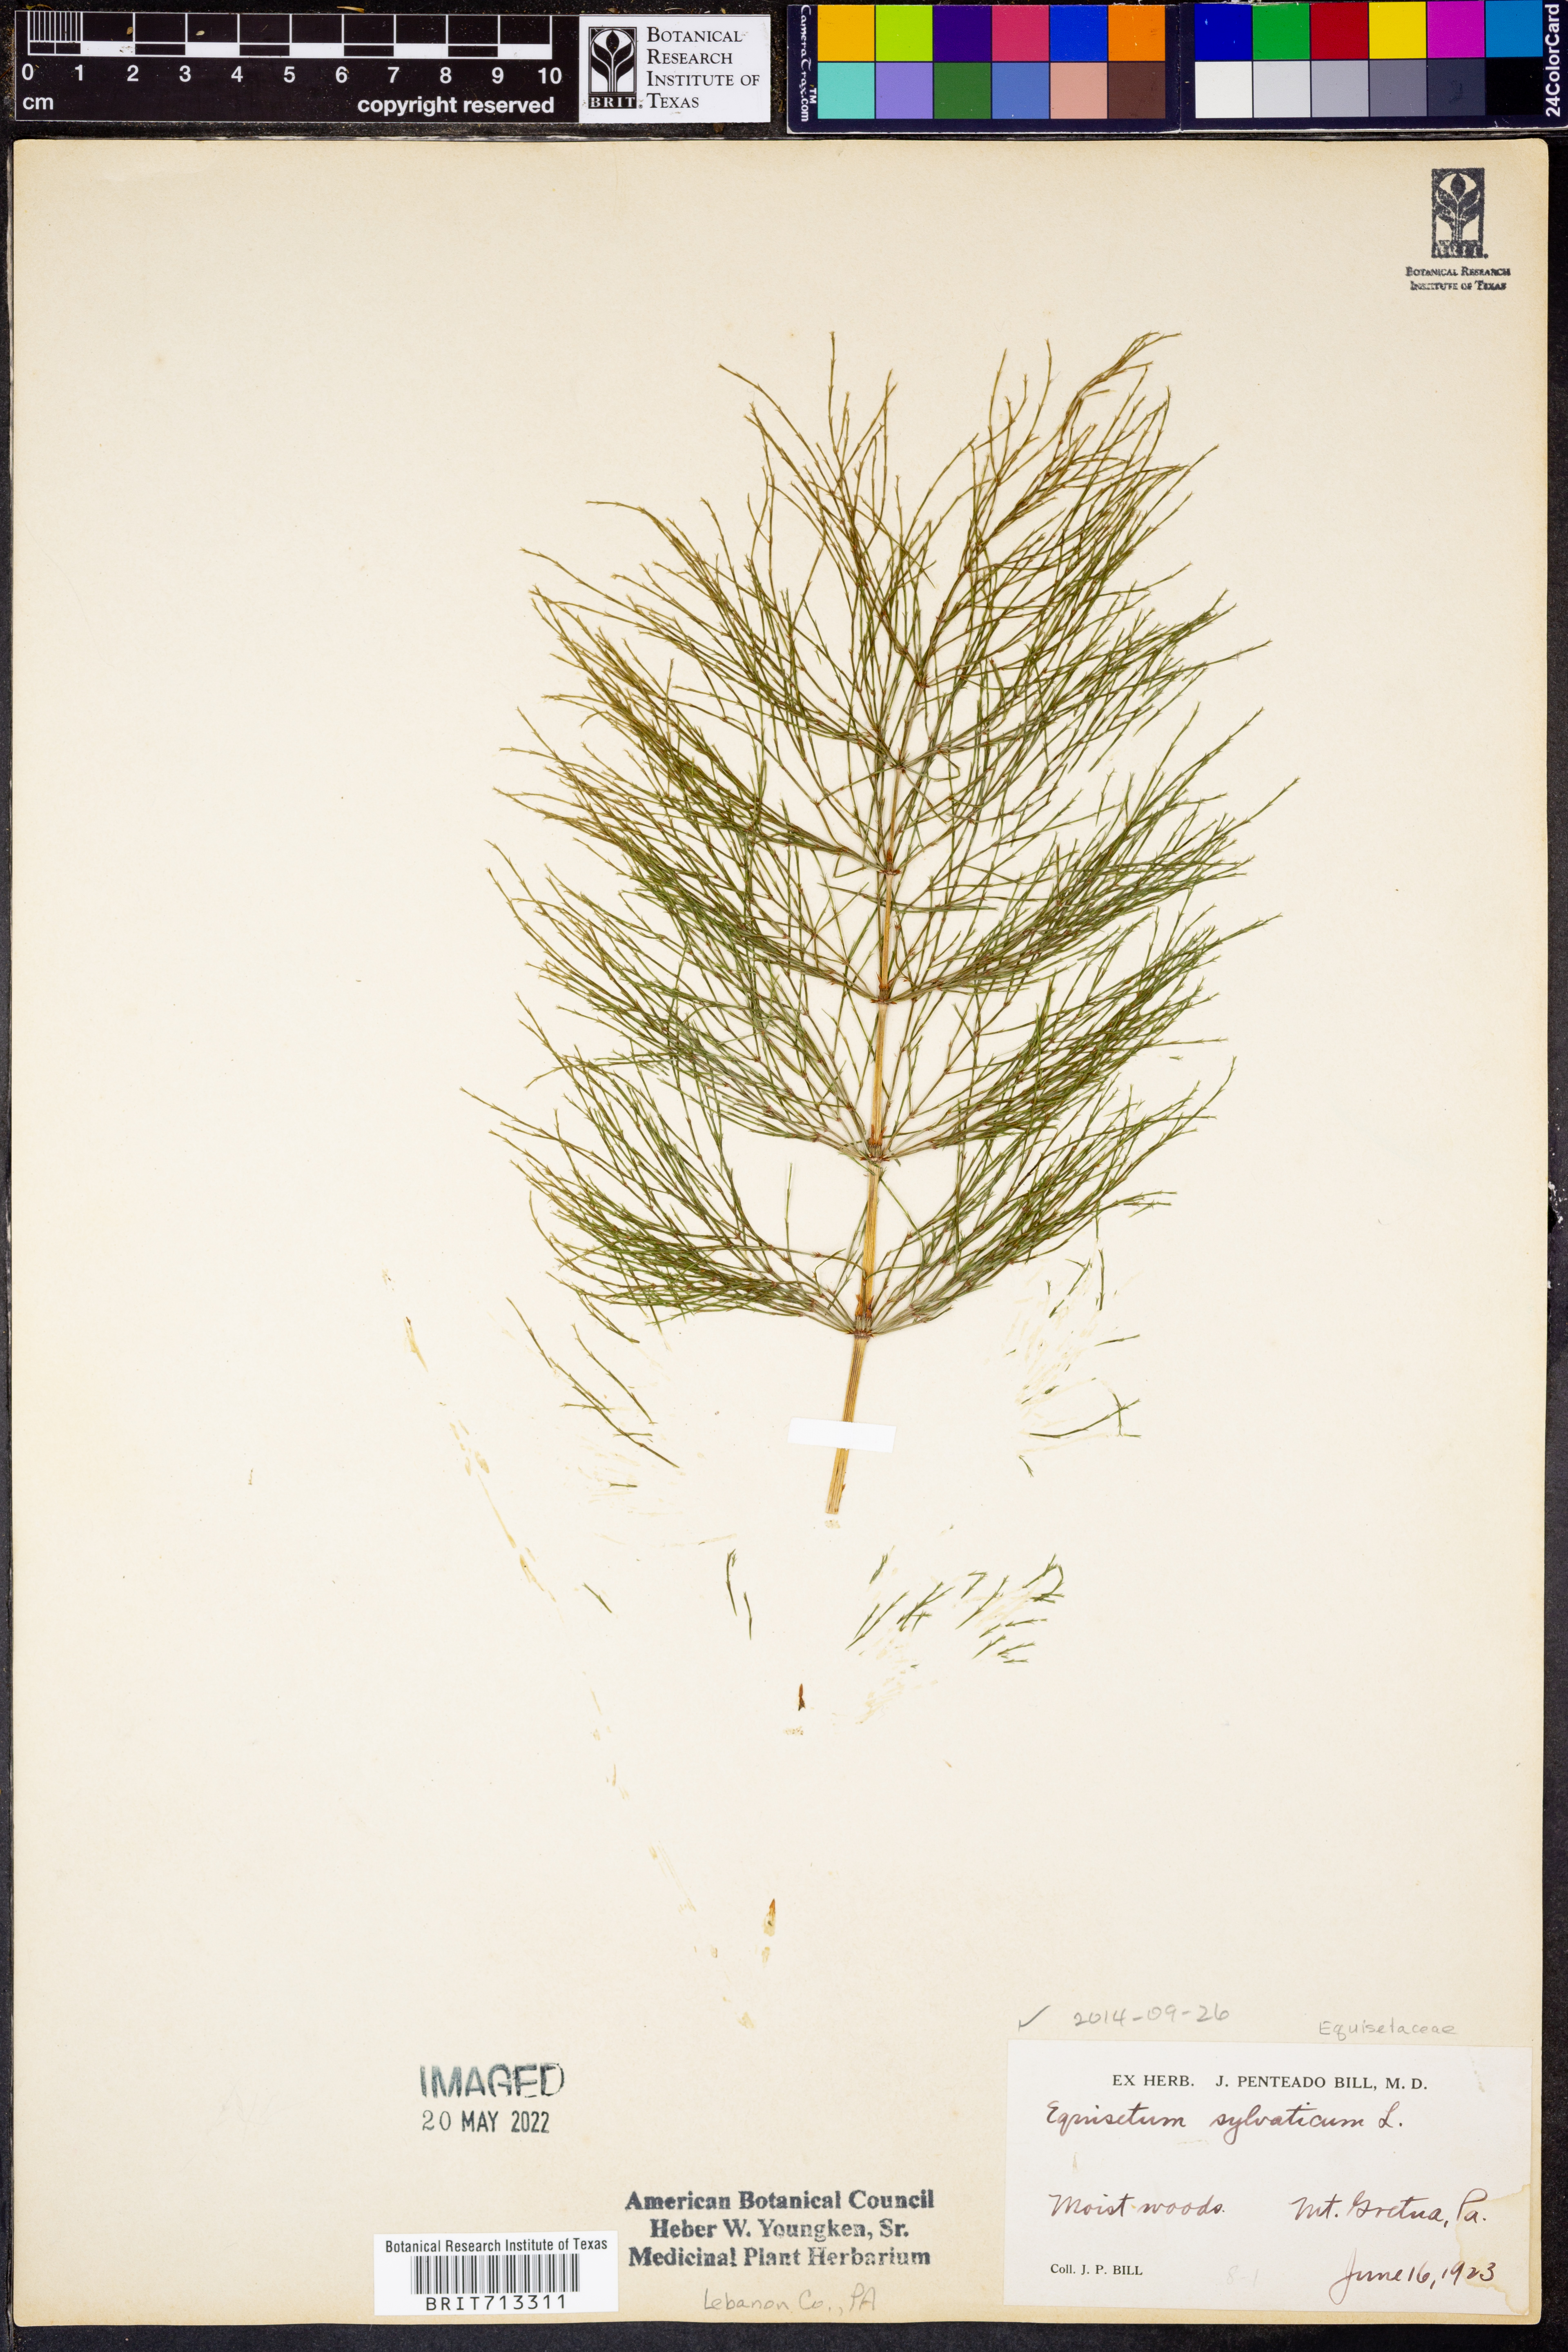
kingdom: Plantae
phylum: Tracheophyta
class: Polypodiopsida
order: Equisetales
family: Equisetaceae
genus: Equisetum
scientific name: Equisetum sylvaticum
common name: Wood horsetail
